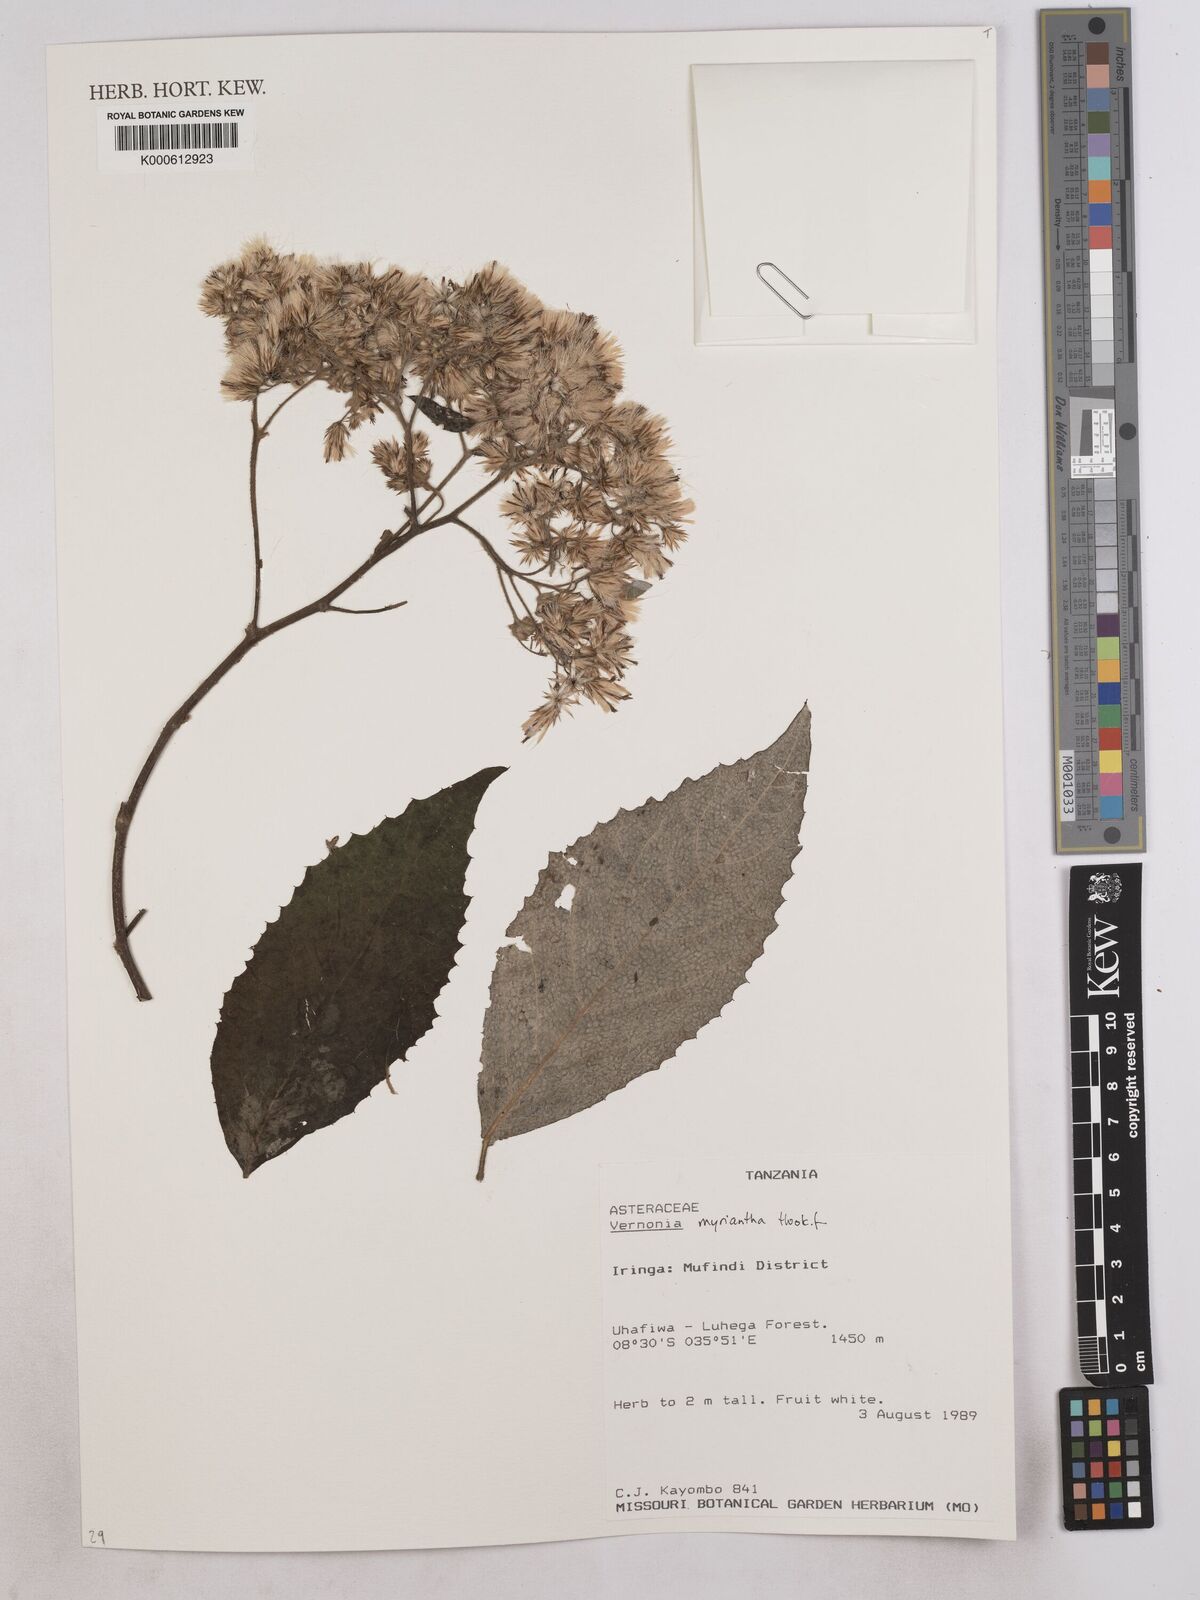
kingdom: Plantae
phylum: Tracheophyta
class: Magnoliopsida
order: Asterales
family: Asteraceae
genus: Gymnanthemum
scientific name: Gymnanthemum myrianthum
